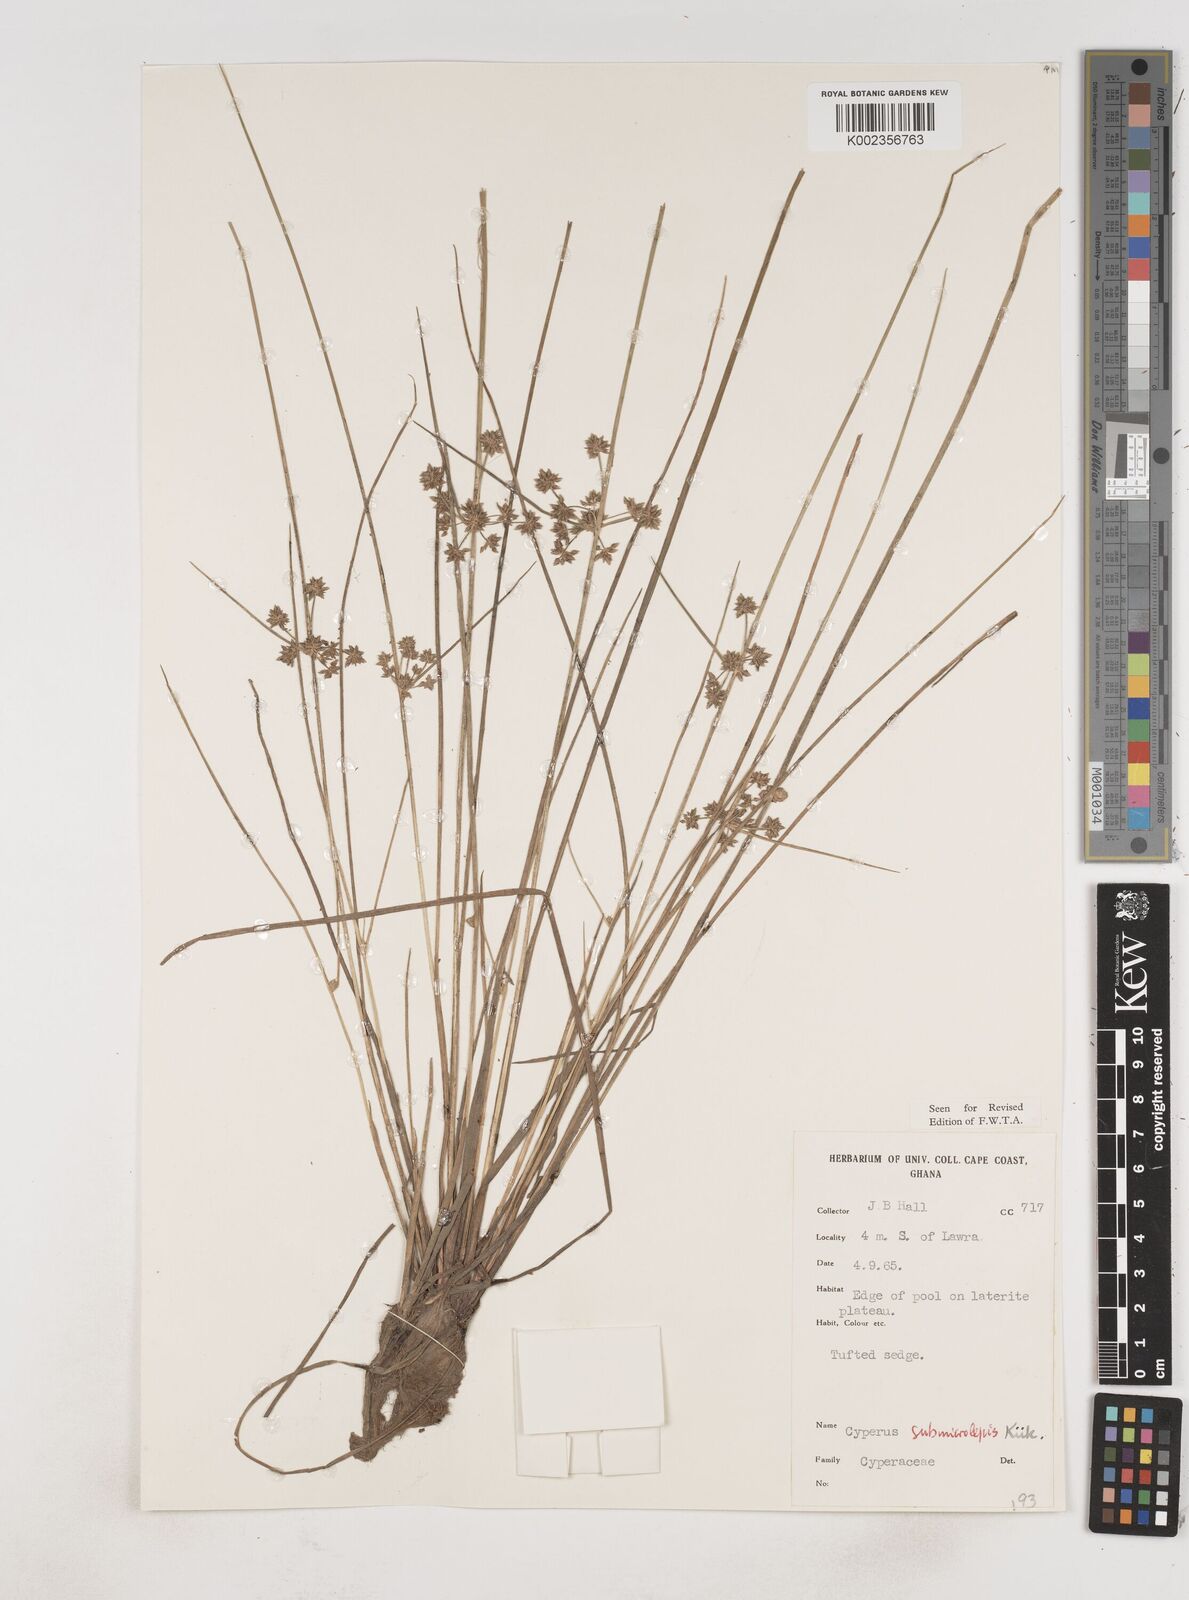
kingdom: Plantae
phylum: Tracheophyta
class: Liliopsida
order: Poales
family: Cyperaceae
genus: Cyperus
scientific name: Cyperus submicrolepis
